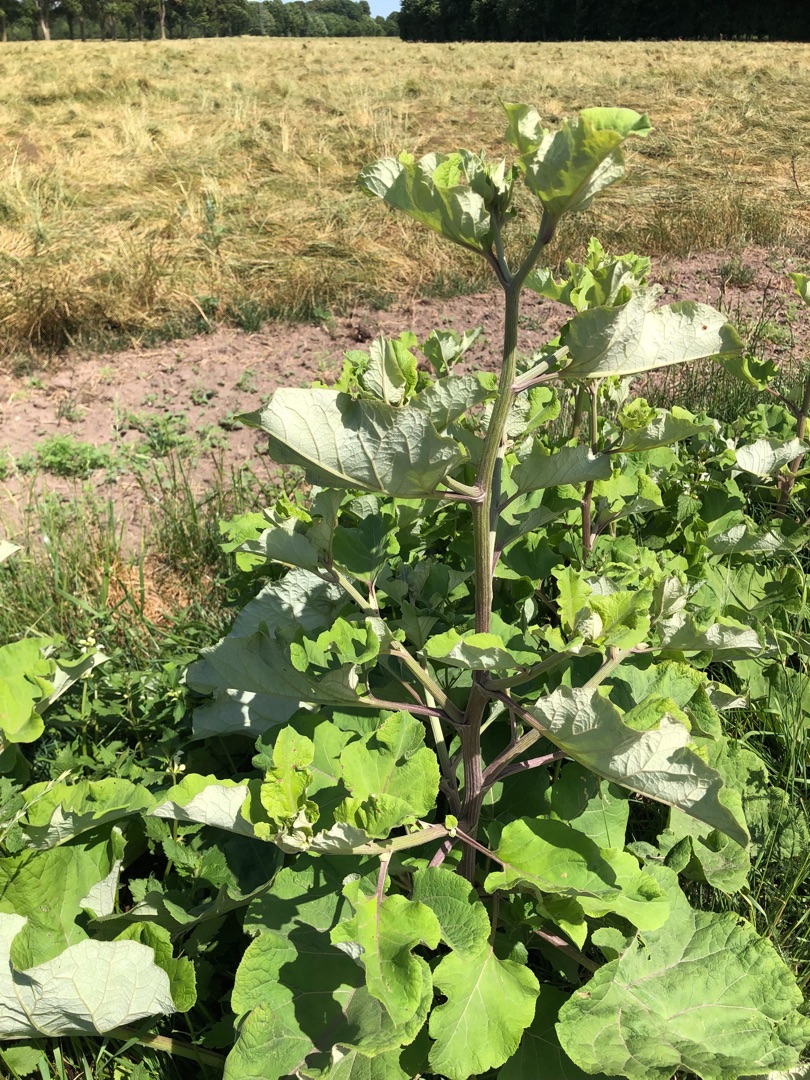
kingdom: Plantae
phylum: Tracheophyta
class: Magnoliopsida
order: Asterales
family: Asteraceae
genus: Arctium
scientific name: Arctium lappa
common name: Glat burre
